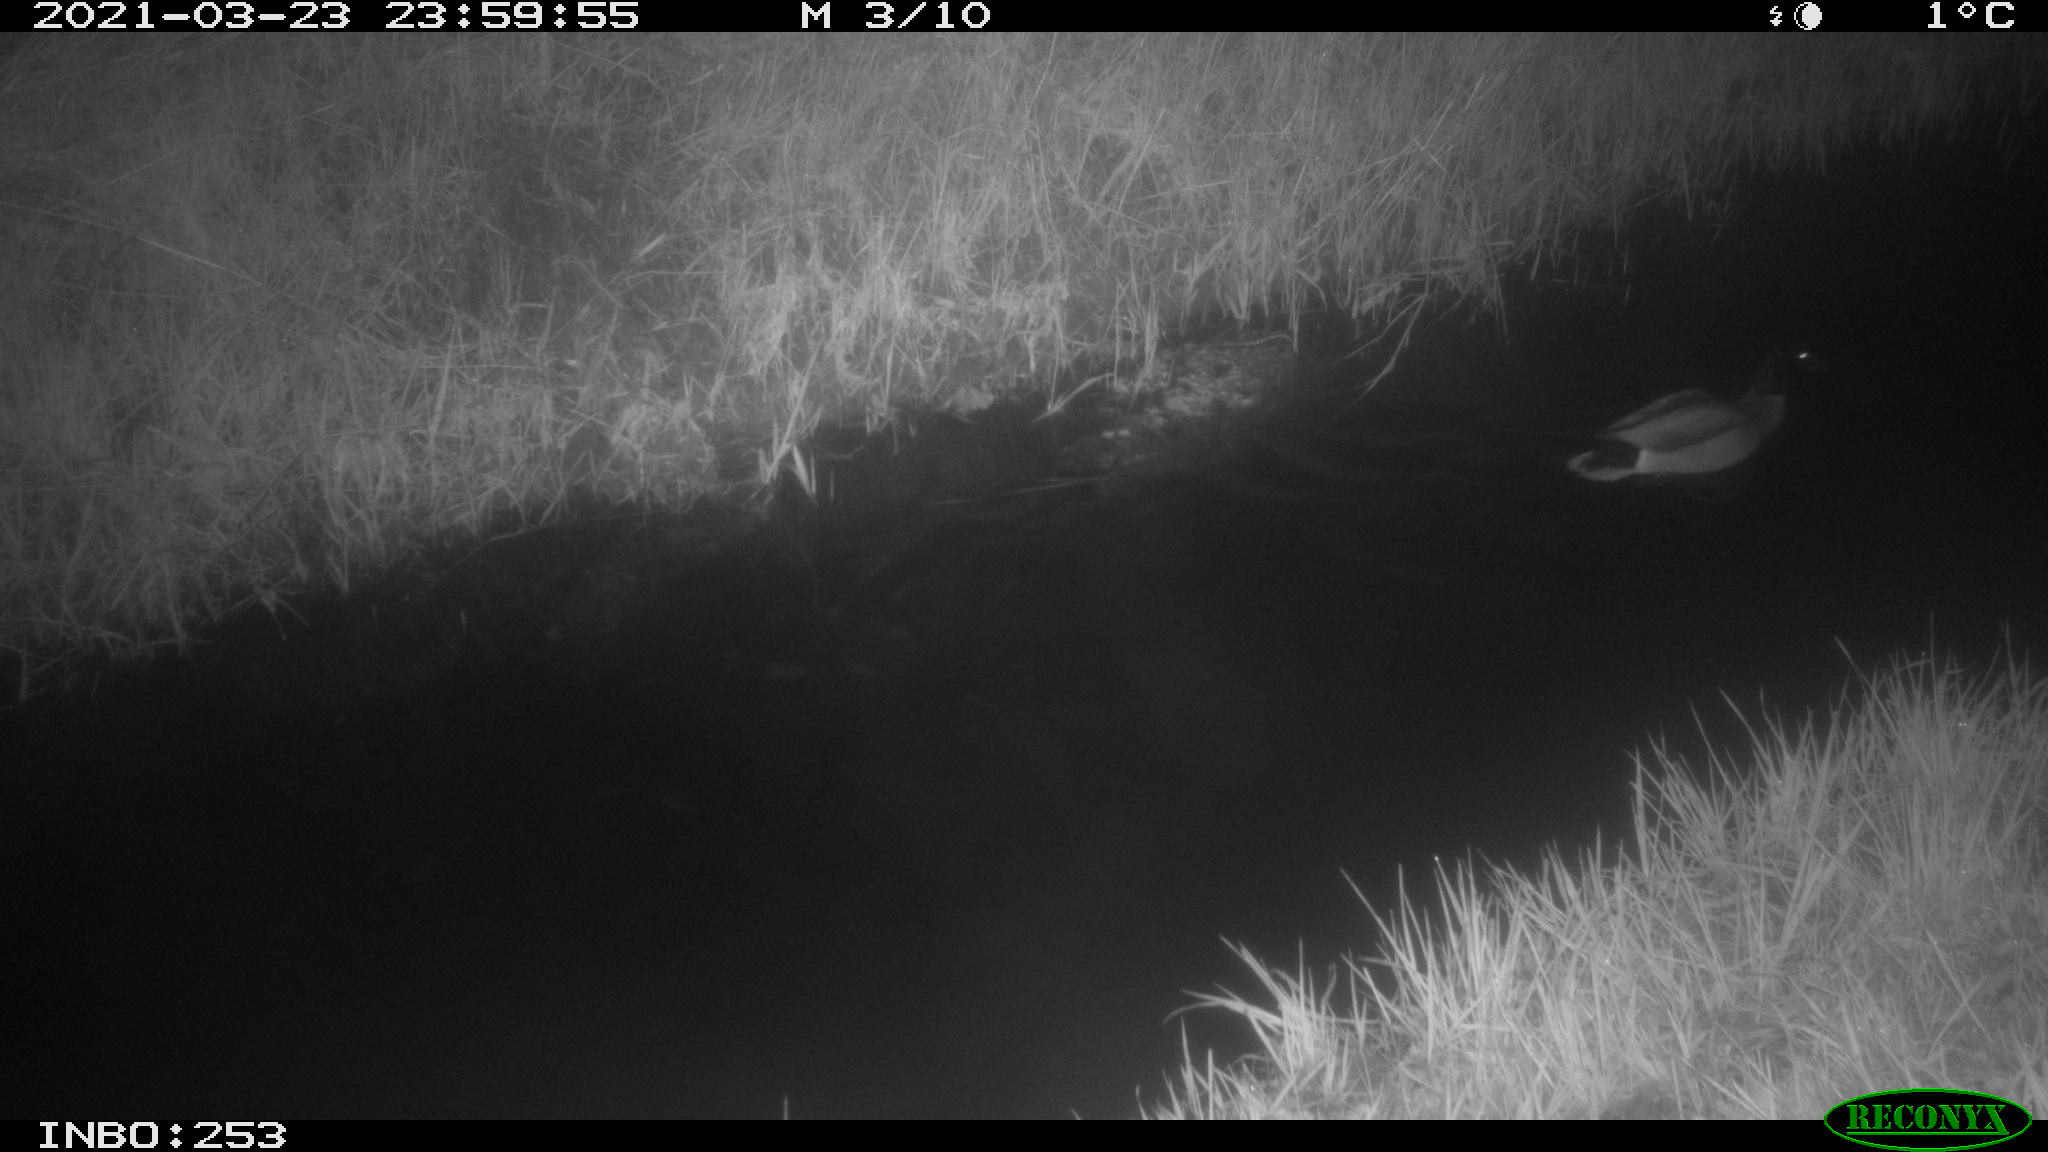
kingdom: Animalia
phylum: Chordata
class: Aves
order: Anseriformes
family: Anatidae
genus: Anas
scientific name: Anas platyrhynchos
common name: Mallard
